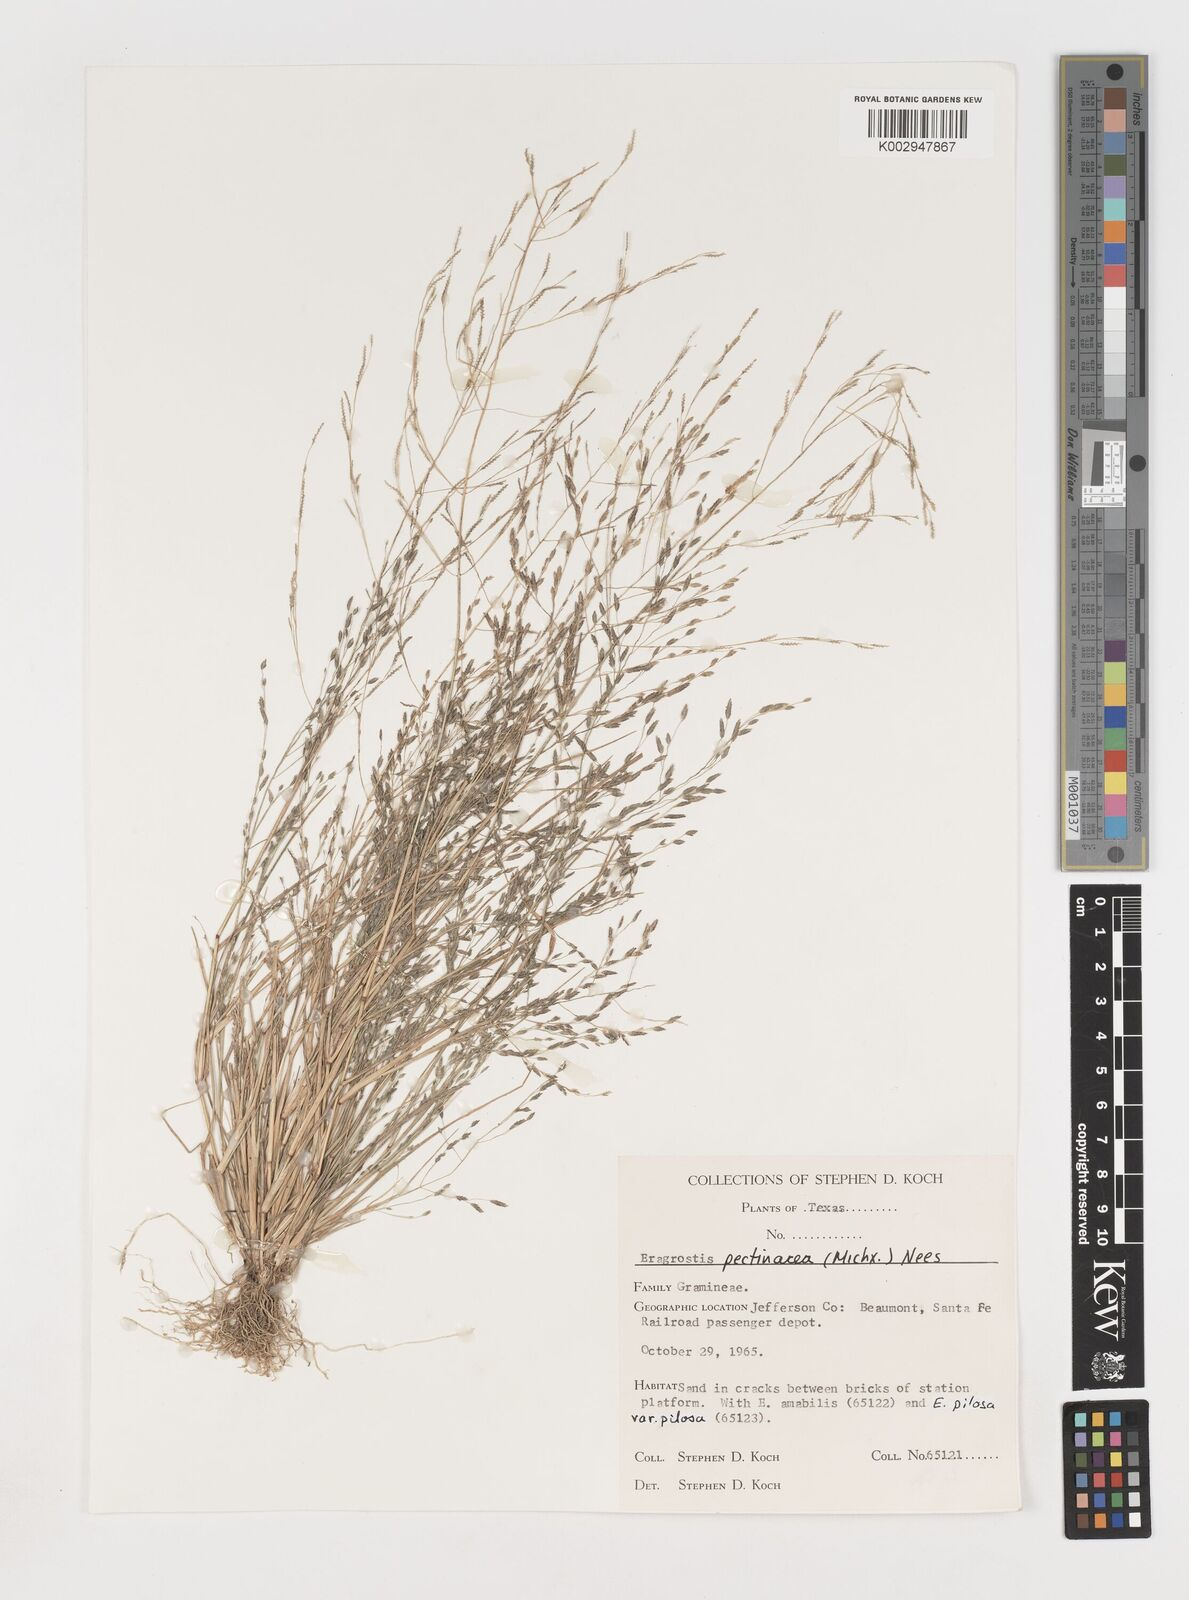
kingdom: Plantae
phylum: Tracheophyta
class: Liliopsida
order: Poales
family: Poaceae
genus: Eragrostis
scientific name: Eragrostis pectinacea
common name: Tufted lovegrass
